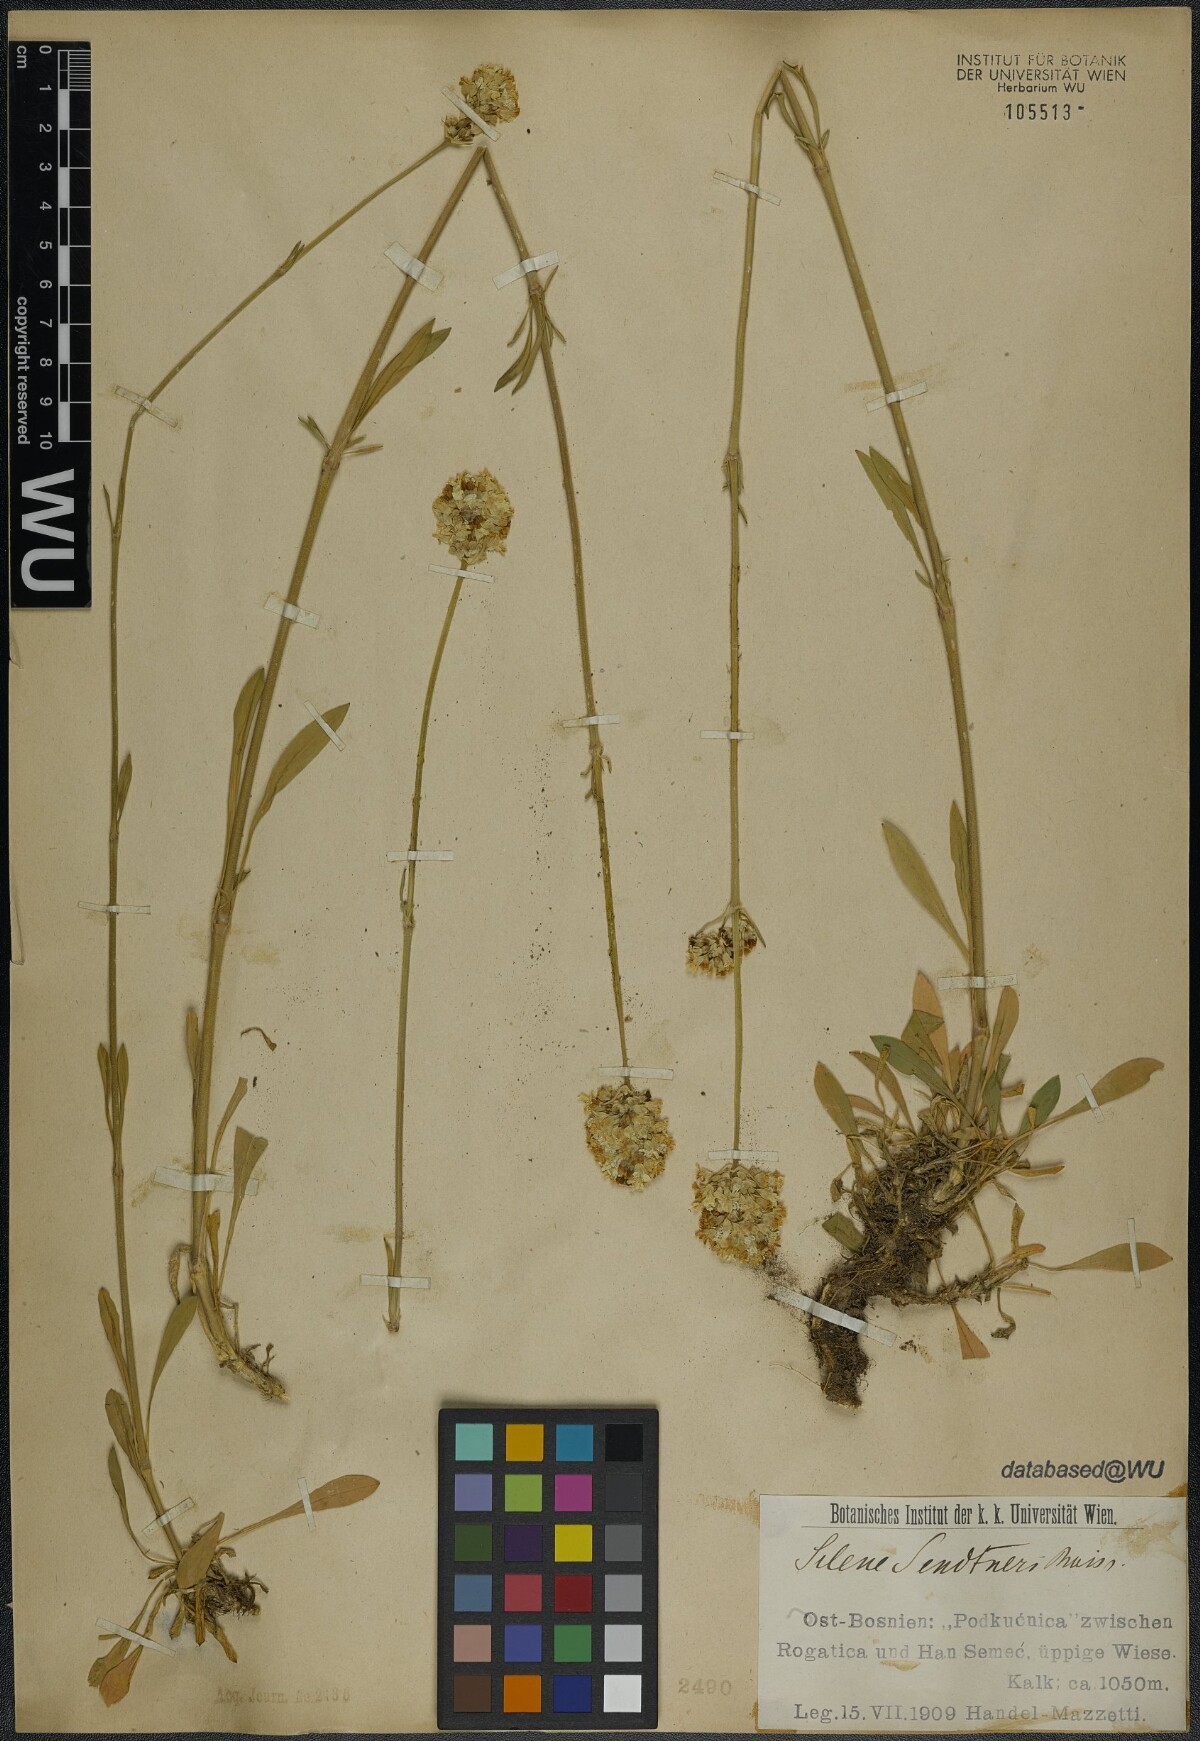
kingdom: Plantae
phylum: Tracheophyta
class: Magnoliopsida
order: Caryophyllales
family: Caryophyllaceae
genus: Silene
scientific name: Silene sendtneri
